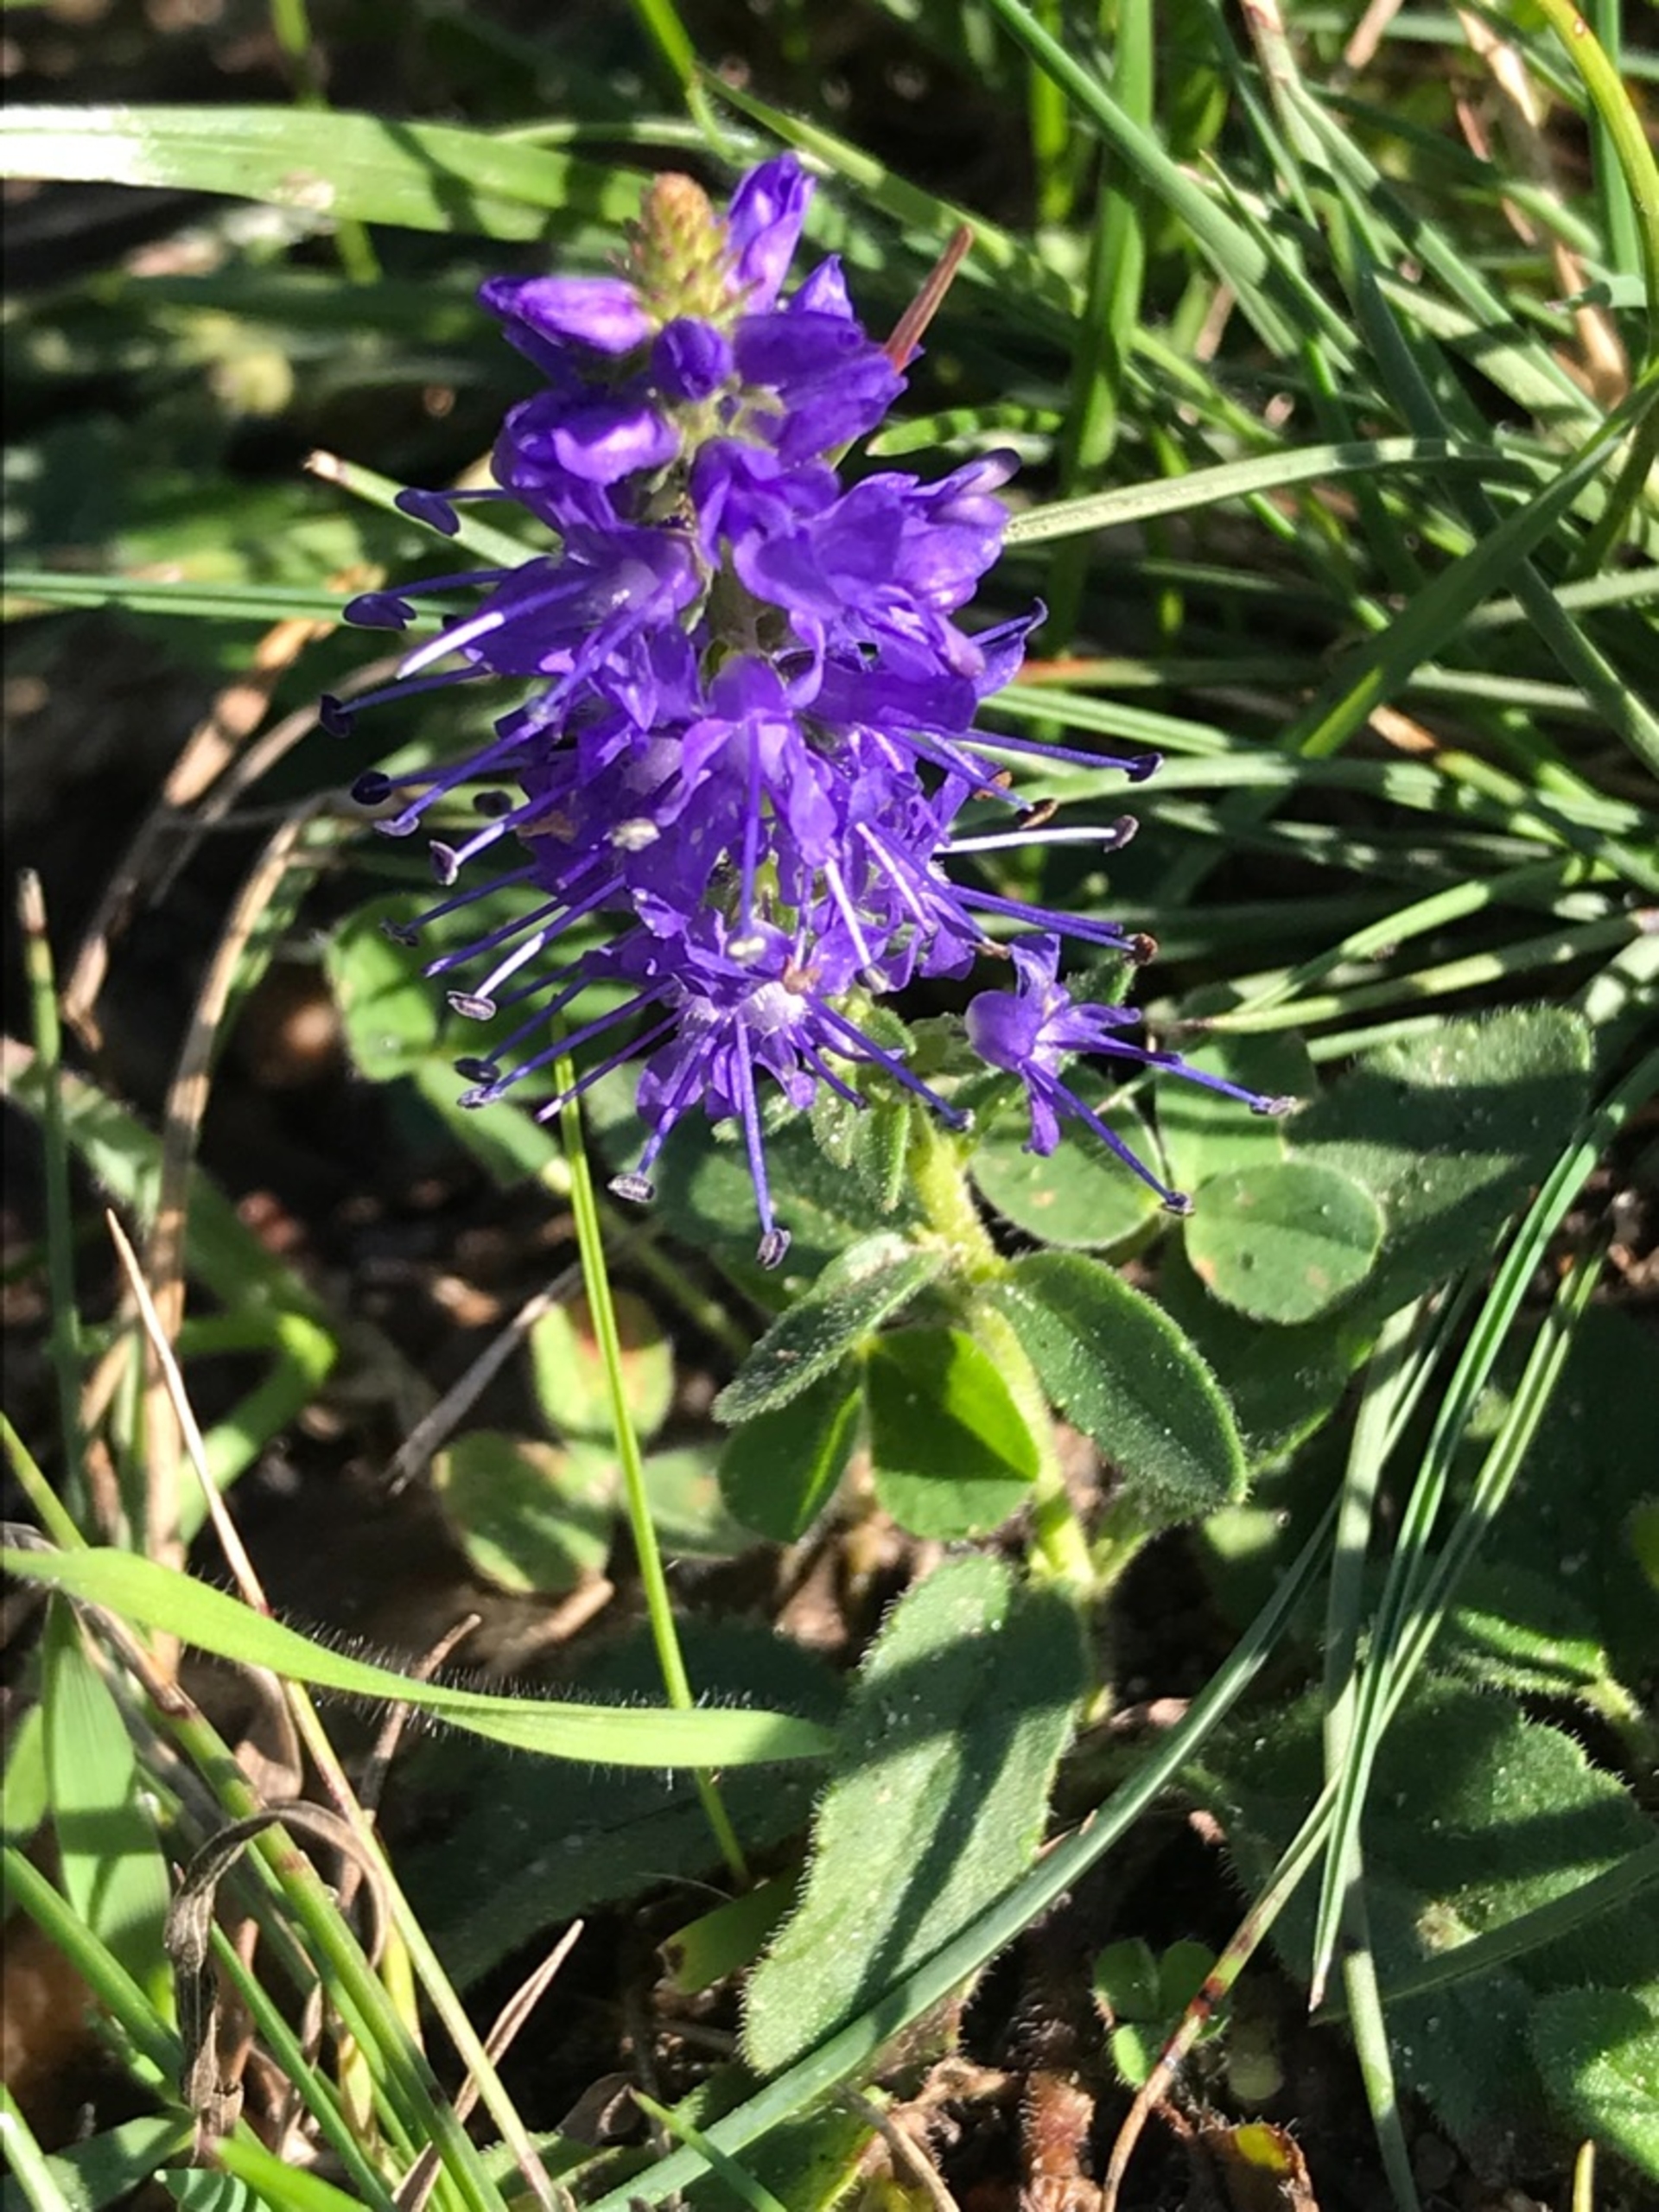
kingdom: Plantae
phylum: Tracheophyta
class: Magnoliopsida
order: Lamiales
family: Plantaginaceae
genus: Veronica
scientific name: Veronica spicata
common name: Aks-ærenpris
